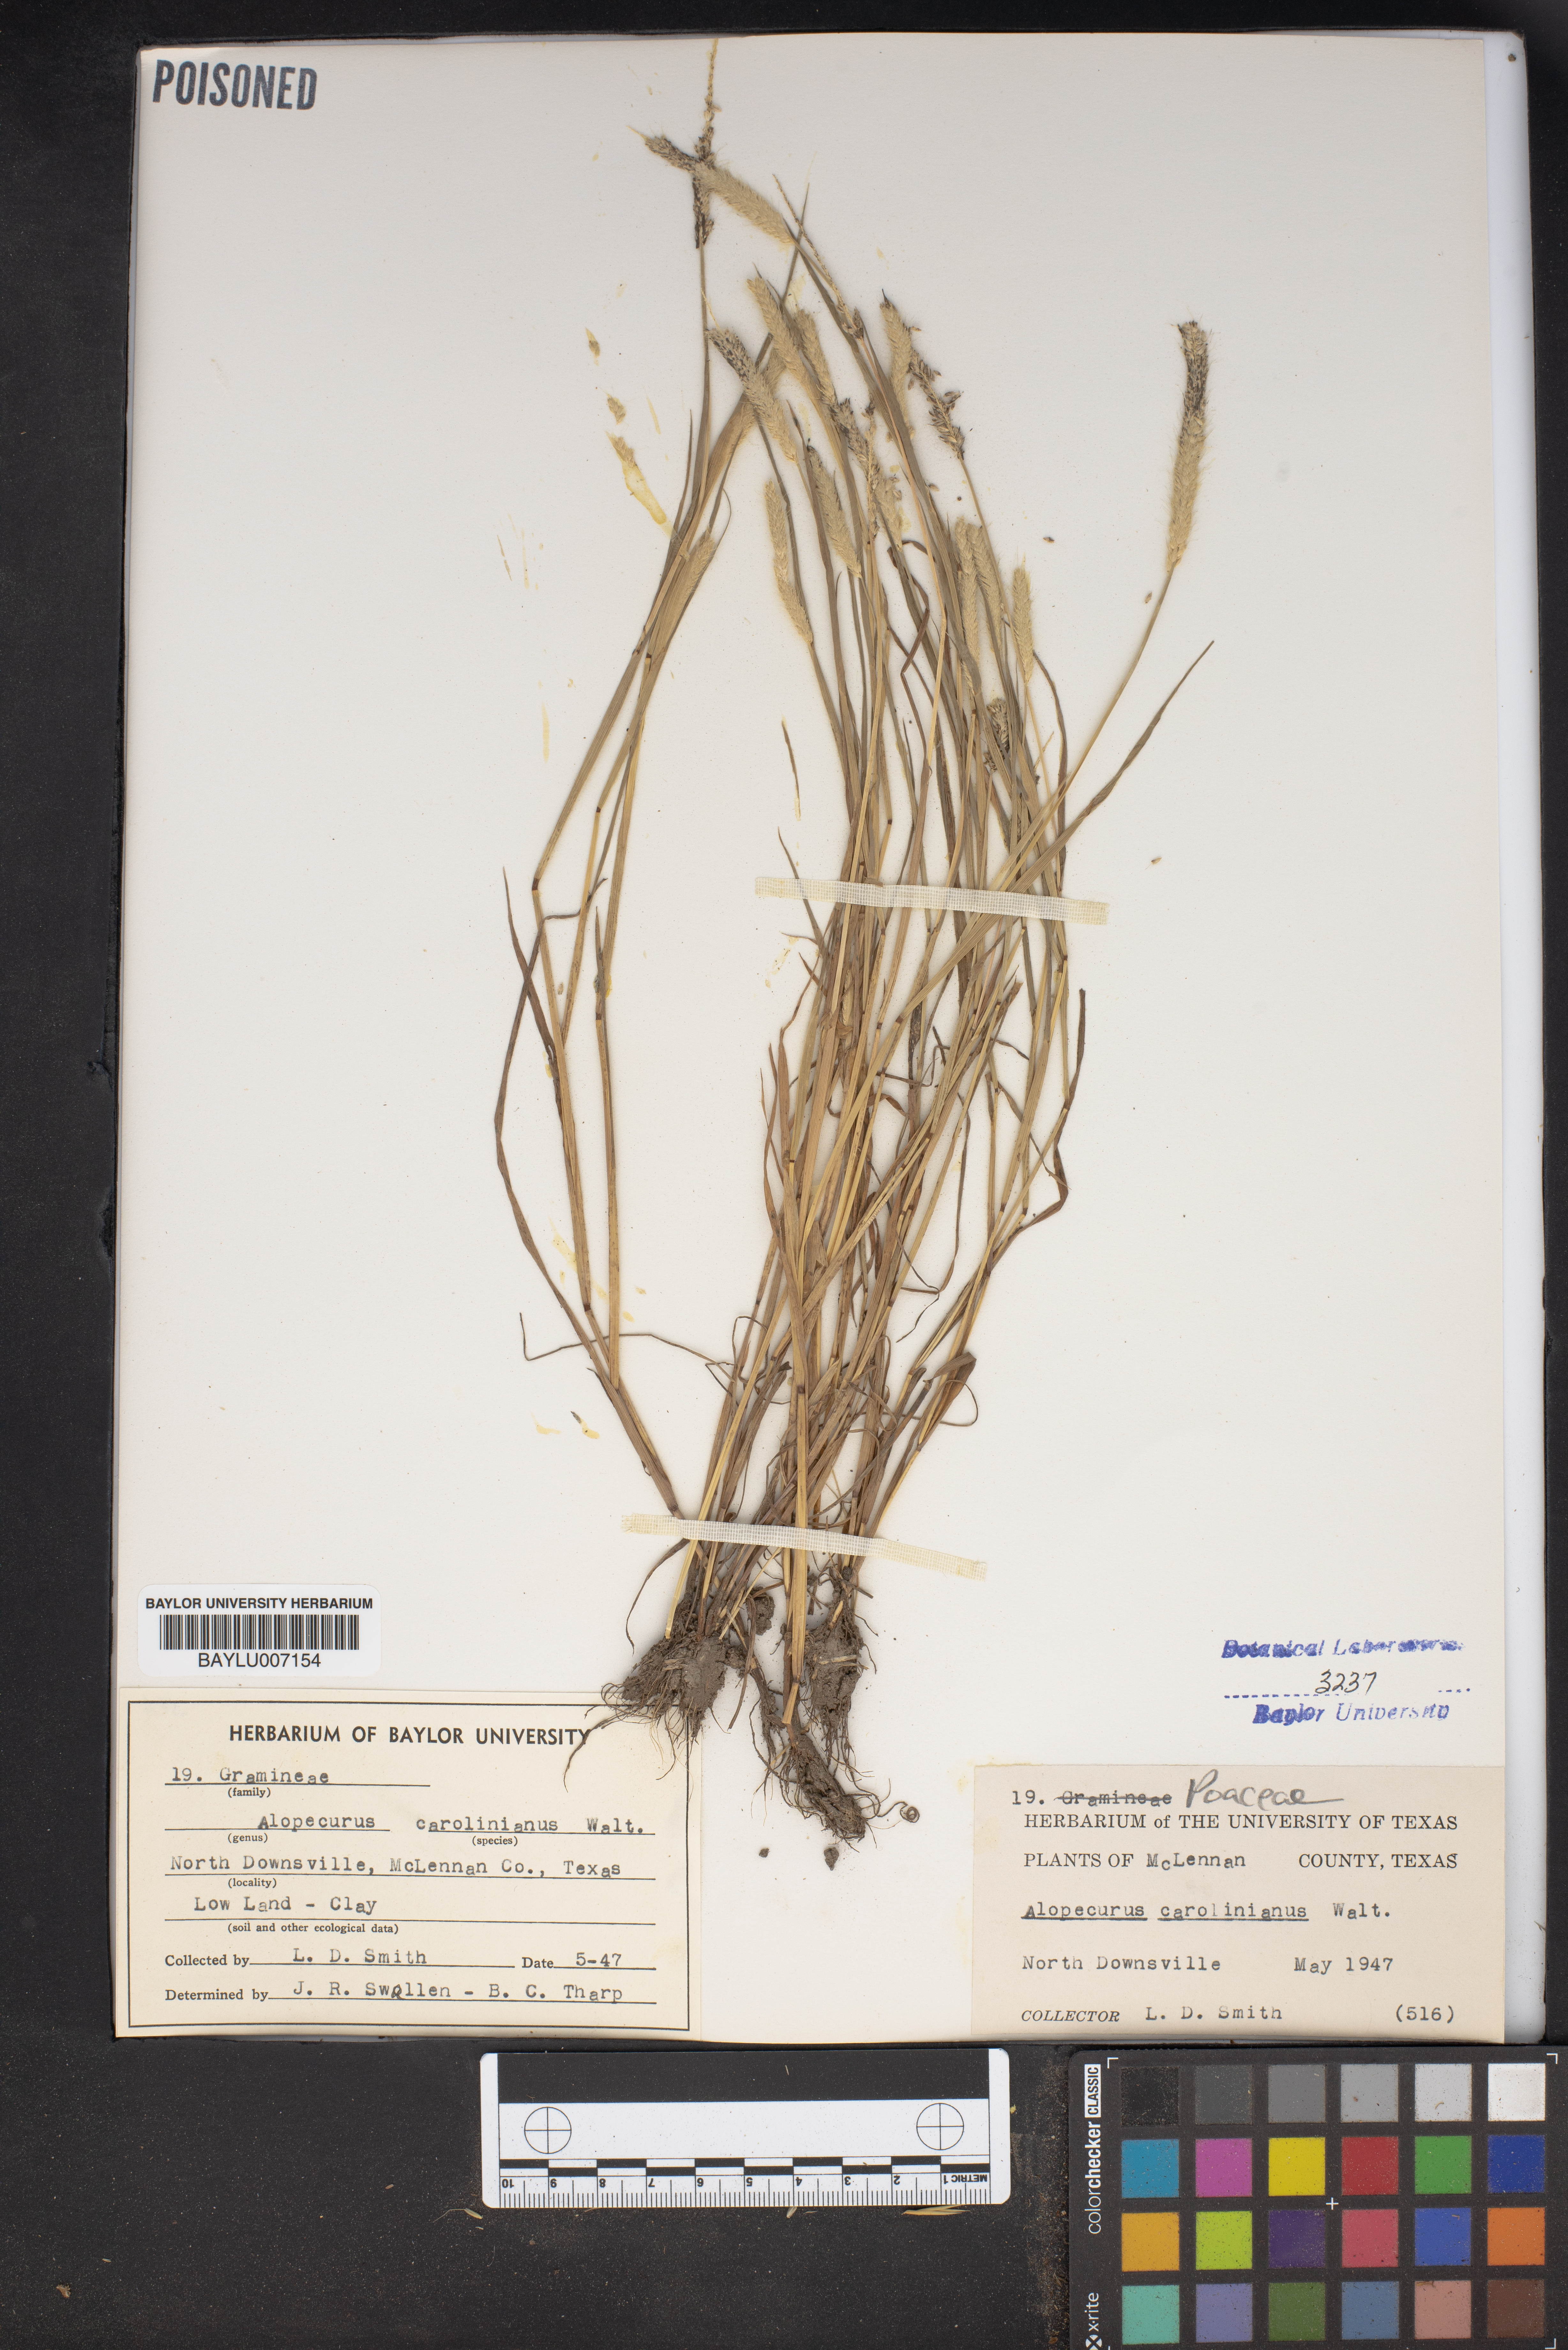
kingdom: Plantae
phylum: Tracheophyta
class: Liliopsida
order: Poales
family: Poaceae
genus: Alopecurus
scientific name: Alopecurus carolinianus
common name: Tufted foxtail
